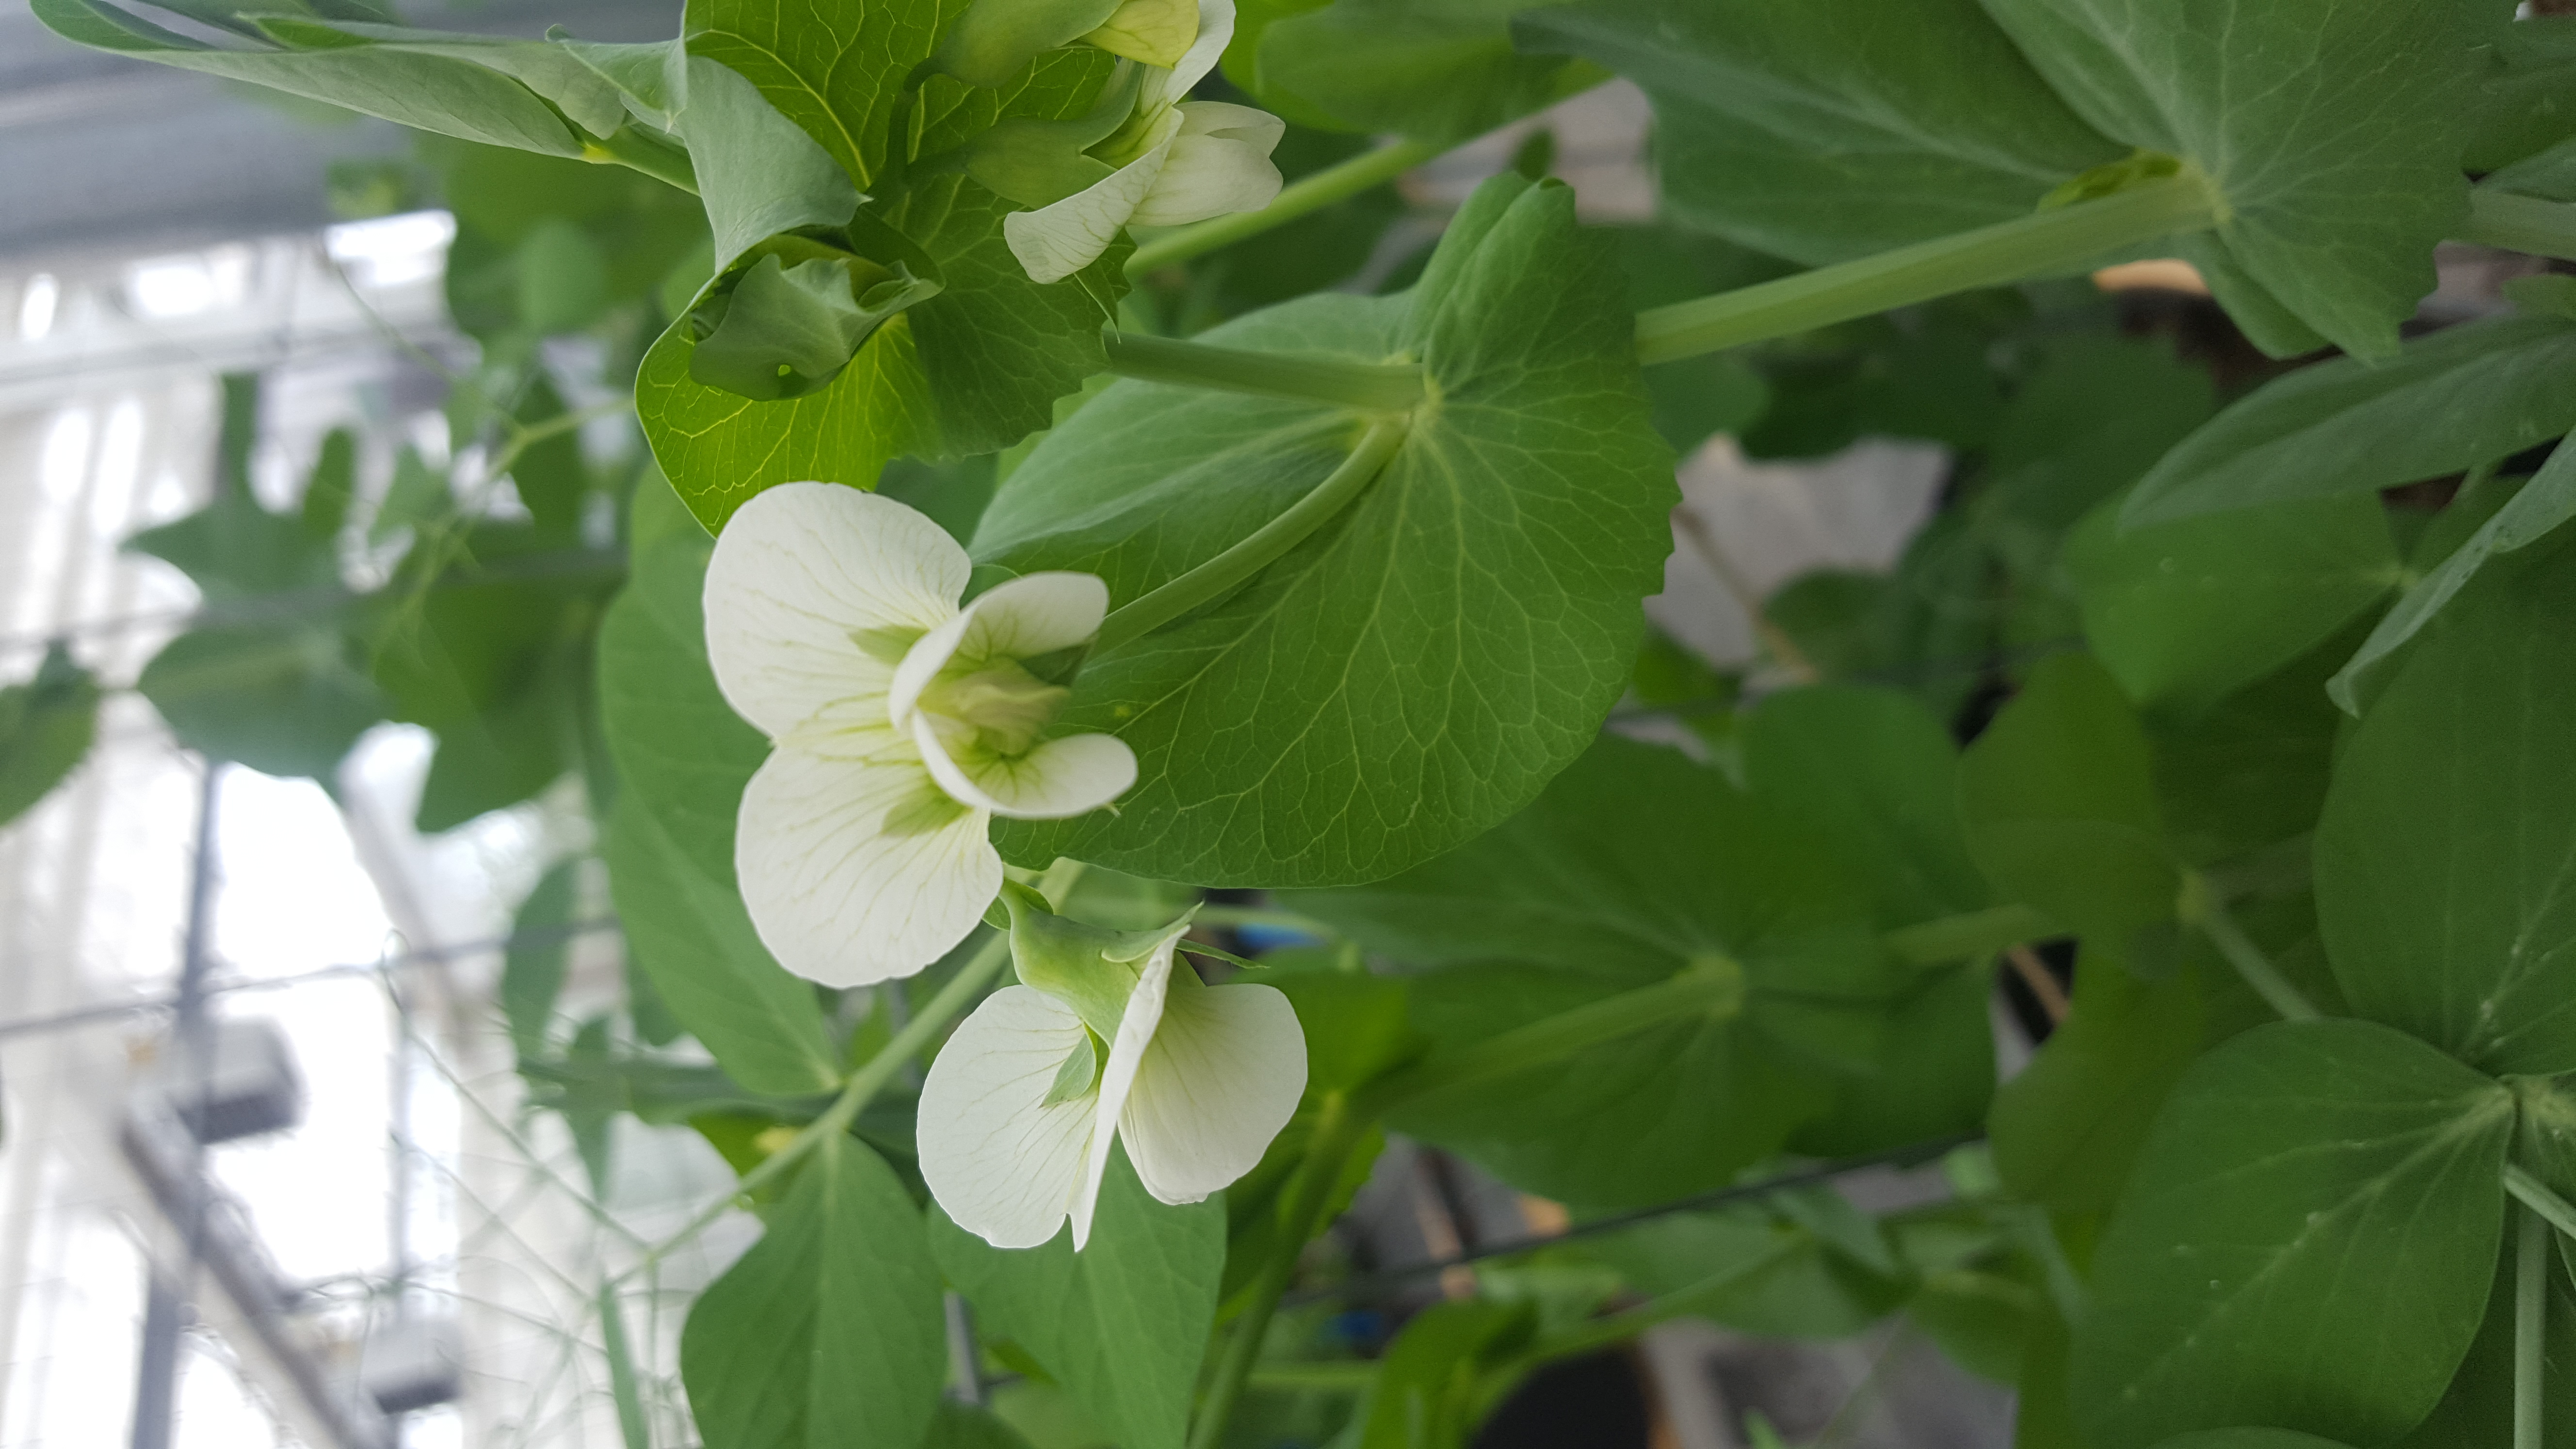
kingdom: Plantae
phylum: Tracheophyta
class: Magnoliopsida
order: Fabales
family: Fabaceae
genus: Lathyrus
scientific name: Lathyrus oleraceus
